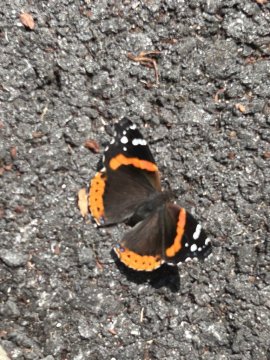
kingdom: Animalia
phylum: Arthropoda
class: Insecta
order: Lepidoptera
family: Nymphalidae
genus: Vanessa
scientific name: Vanessa atalanta
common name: Red Admiral
